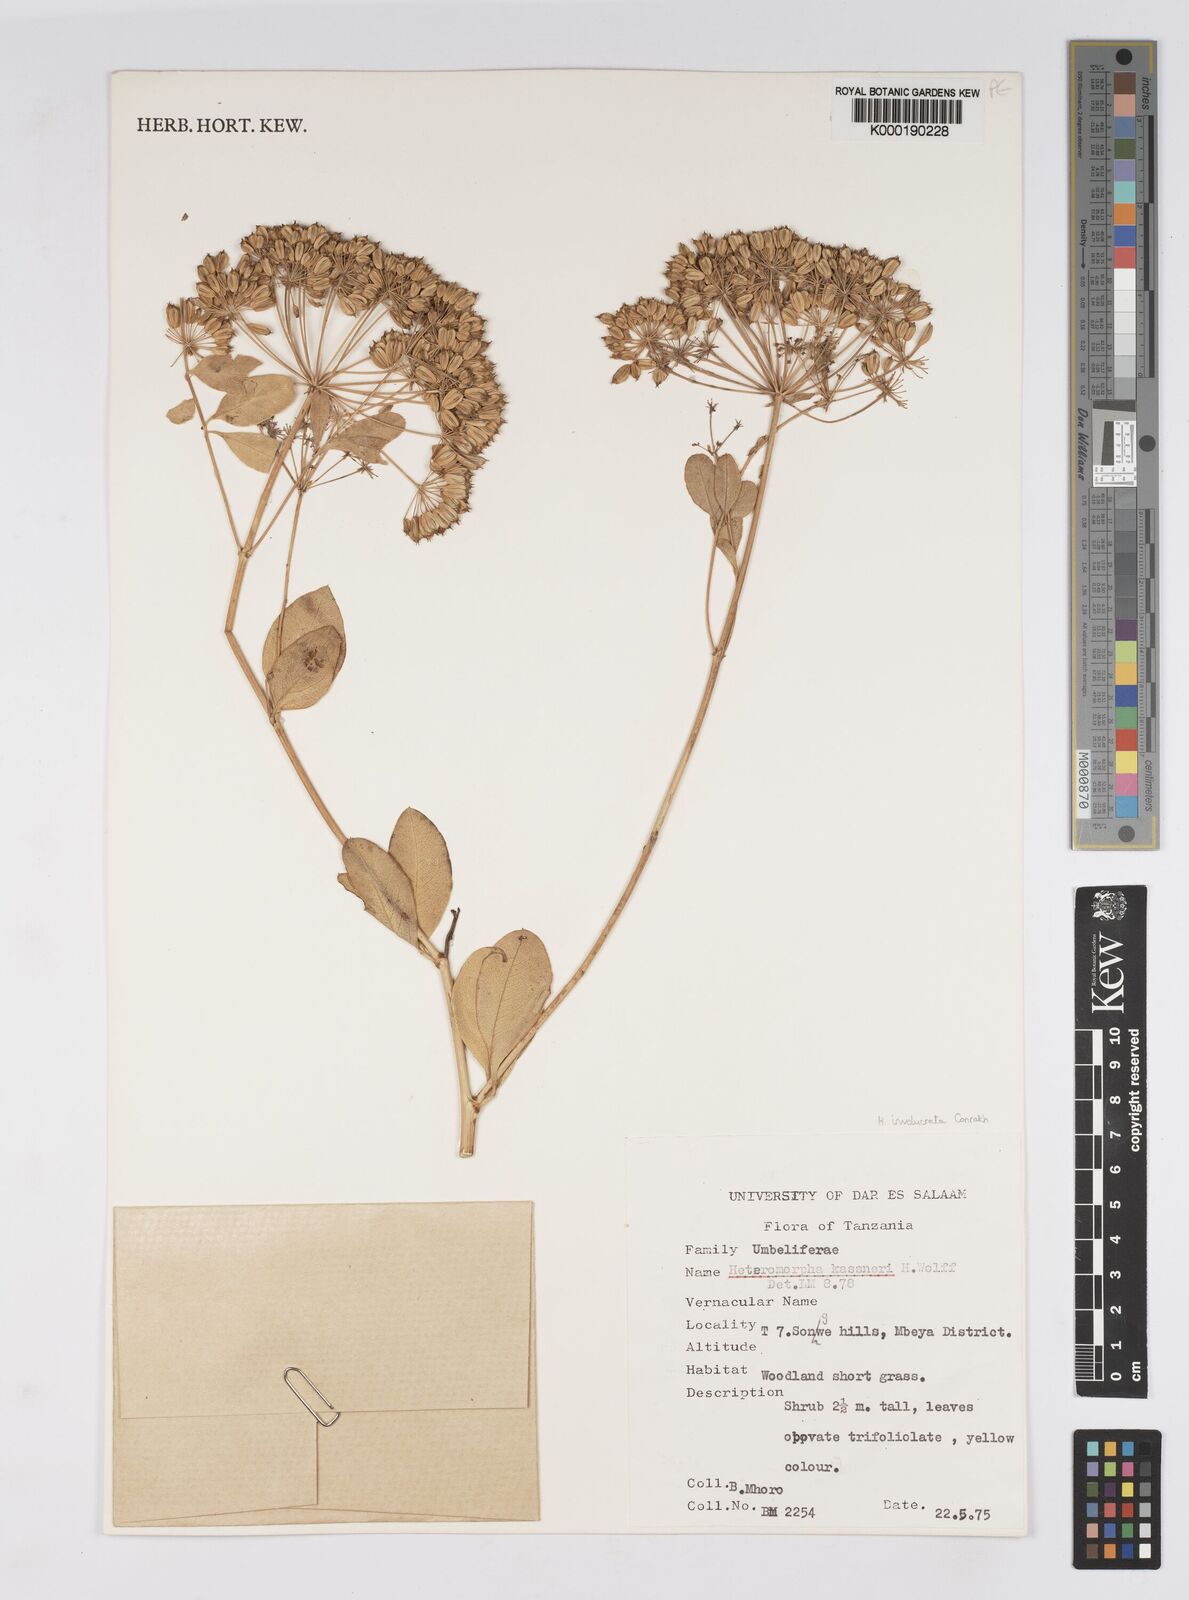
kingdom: Plantae
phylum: Tracheophyta
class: Magnoliopsida
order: Apiales
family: Apiaceae
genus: Heteromorpha
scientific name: Heteromorpha involucrata
